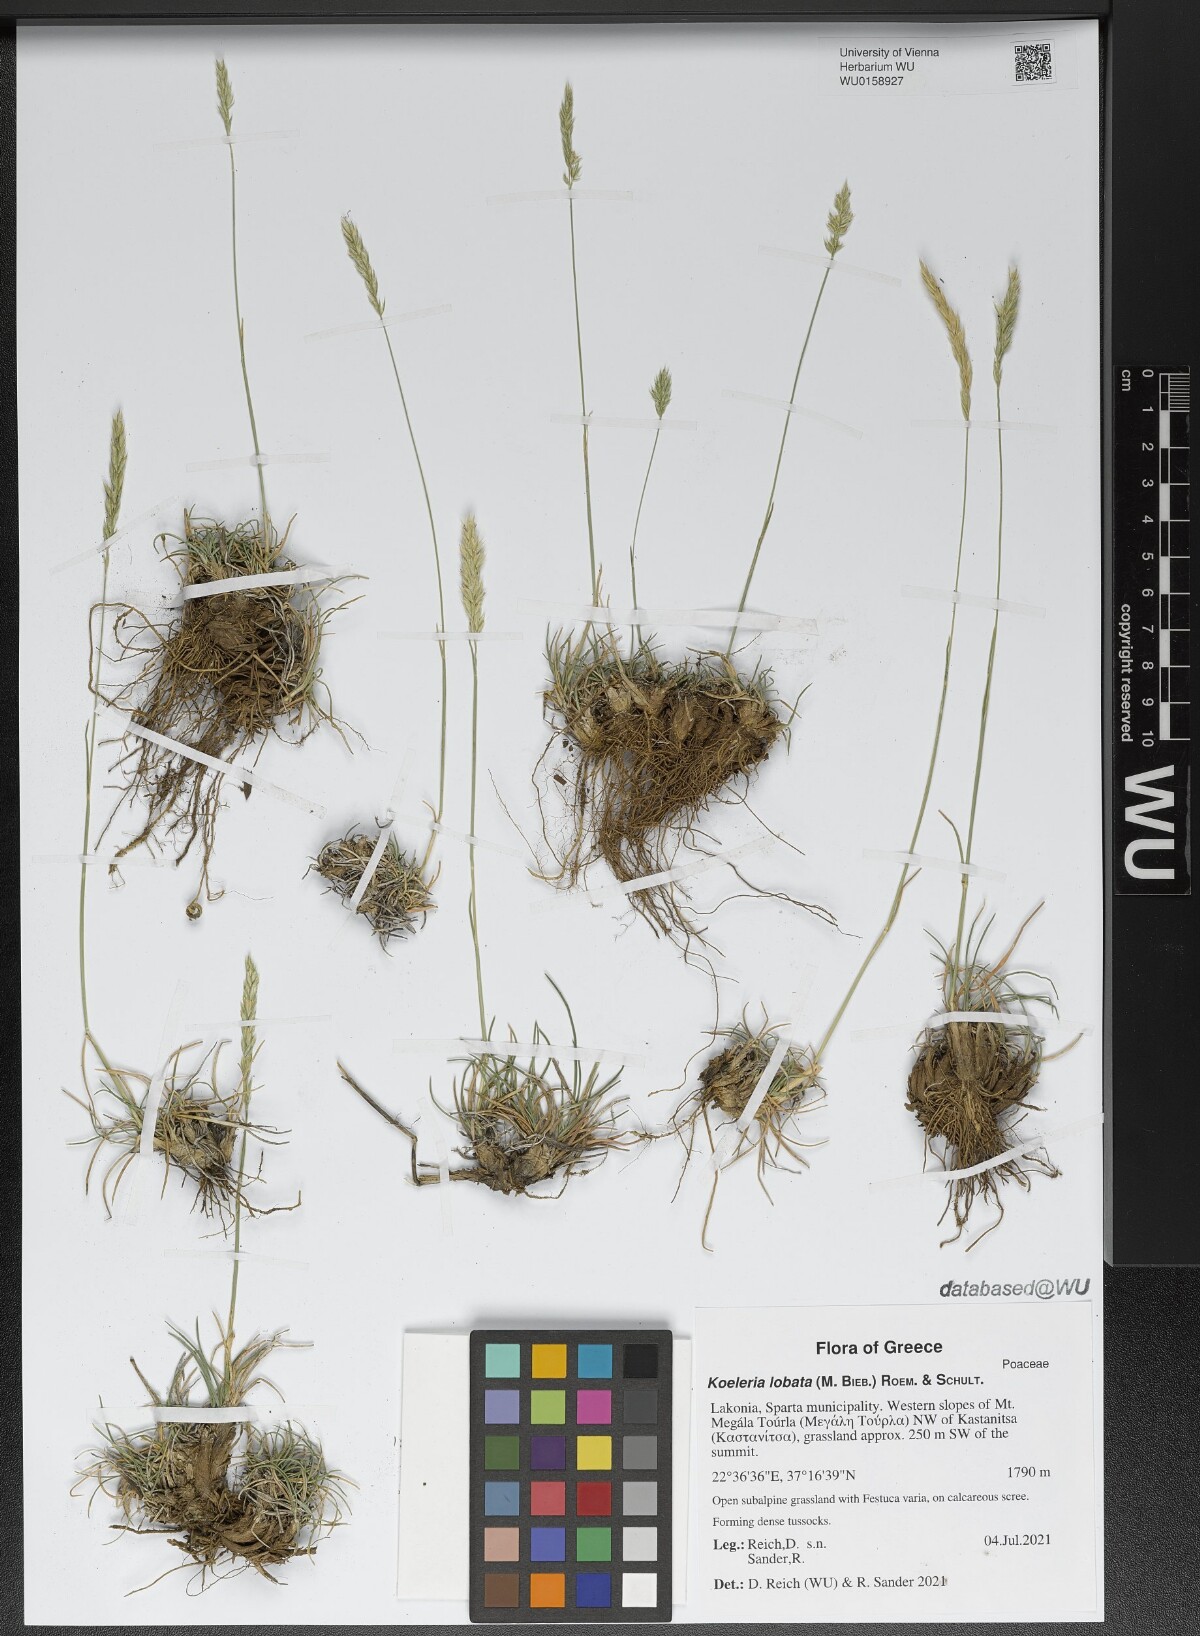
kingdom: Plantae
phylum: Tracheophyta
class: Liliopsida
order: Poales
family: Poaceae
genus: Koeleria
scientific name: Koeleria brevis
